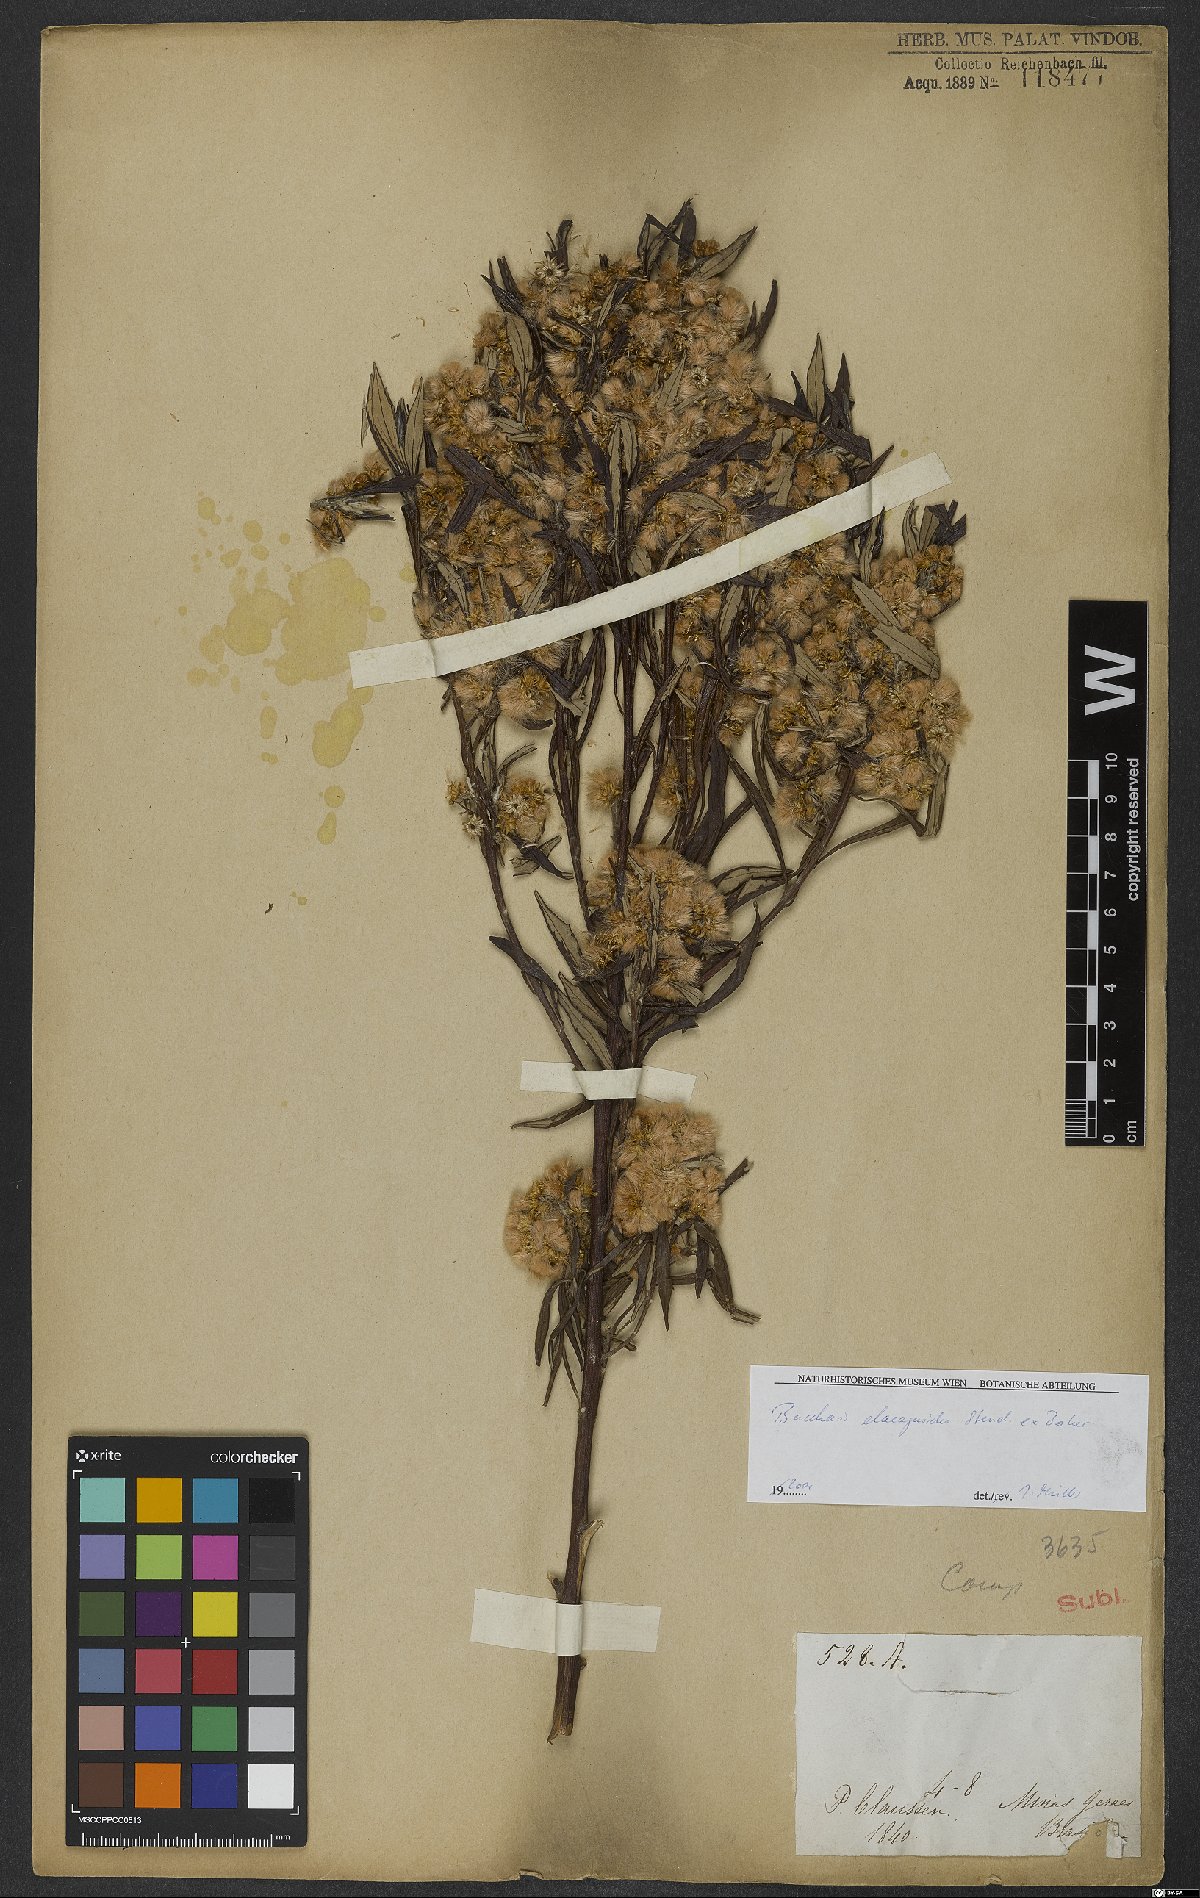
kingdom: Plantae
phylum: Tracheophyta
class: Magnoliopsida
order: Asterales
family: Asteraceae
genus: Baccharis
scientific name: Baccharis montana
